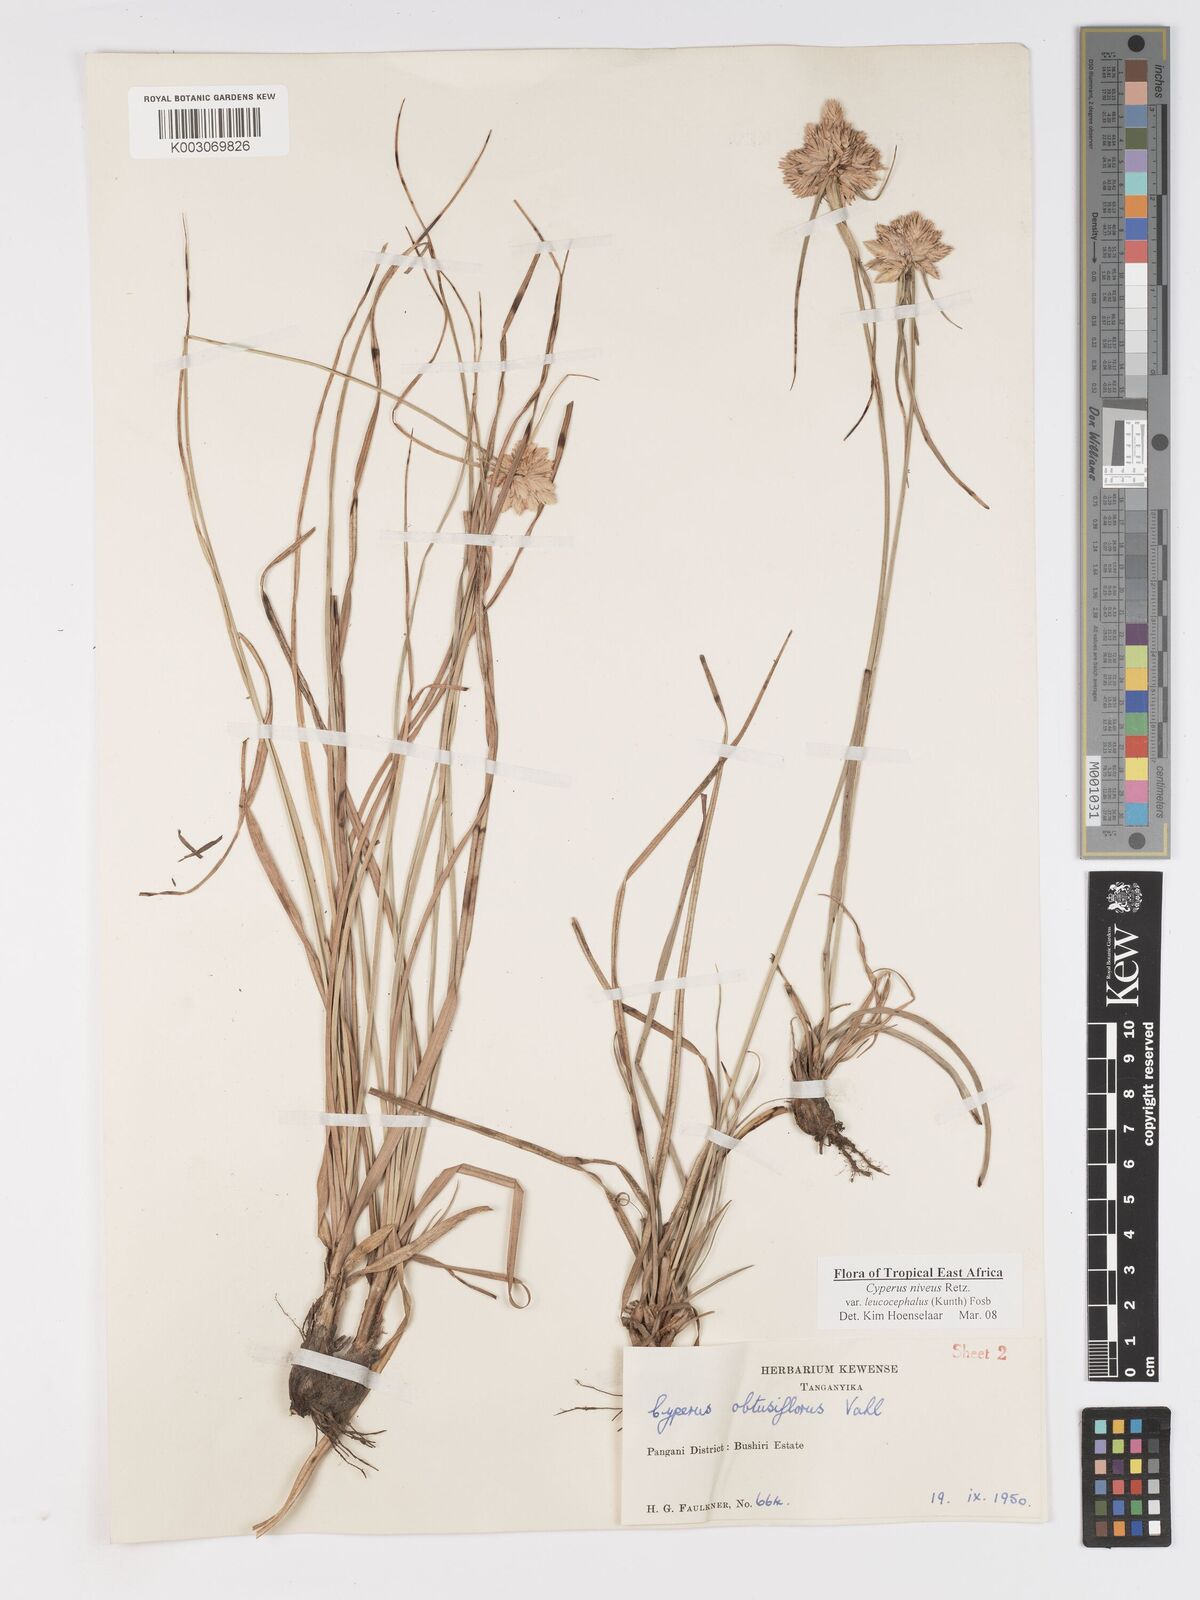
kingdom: Plantae
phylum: Tracheophyta
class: Liliopsida
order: Poales
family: Cyperaceae
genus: Cyperus
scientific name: Cyperus niveus
